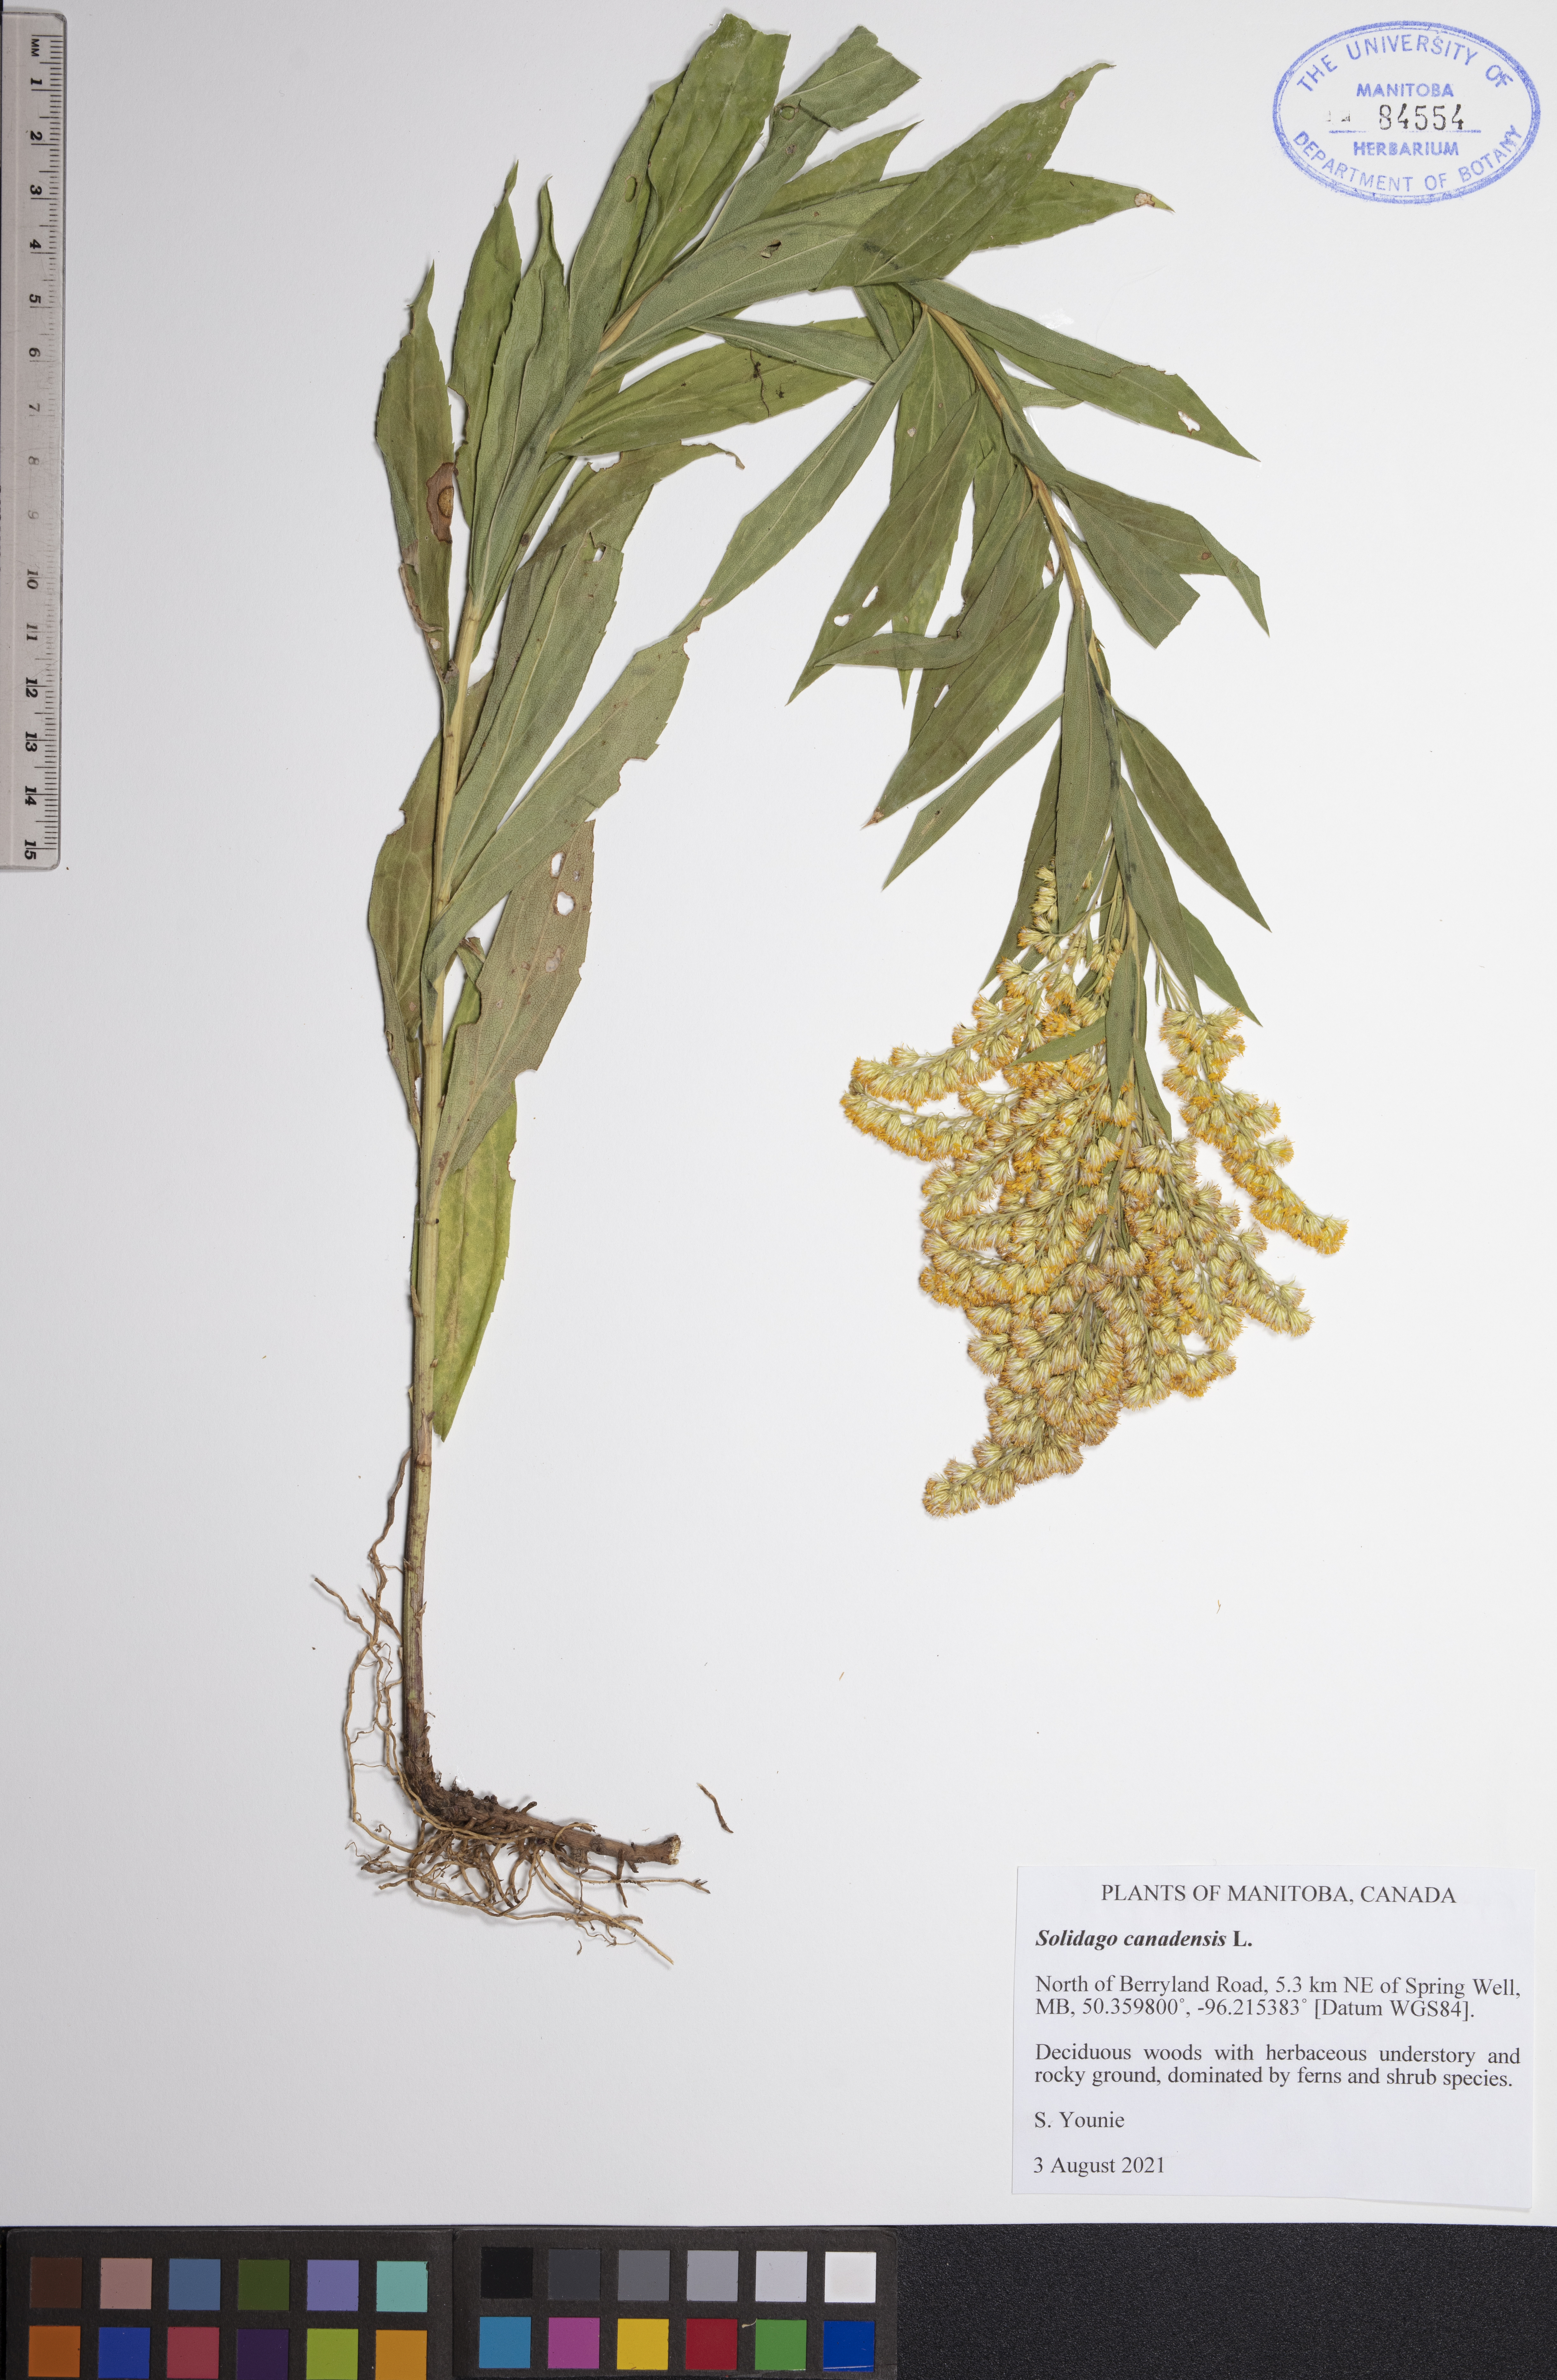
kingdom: Plantae
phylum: Tracheophyta
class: Magnoliopsida
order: Asterales
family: Asteraceae
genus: Solidago
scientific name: Solidago canadensis
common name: Canada goldenrod
